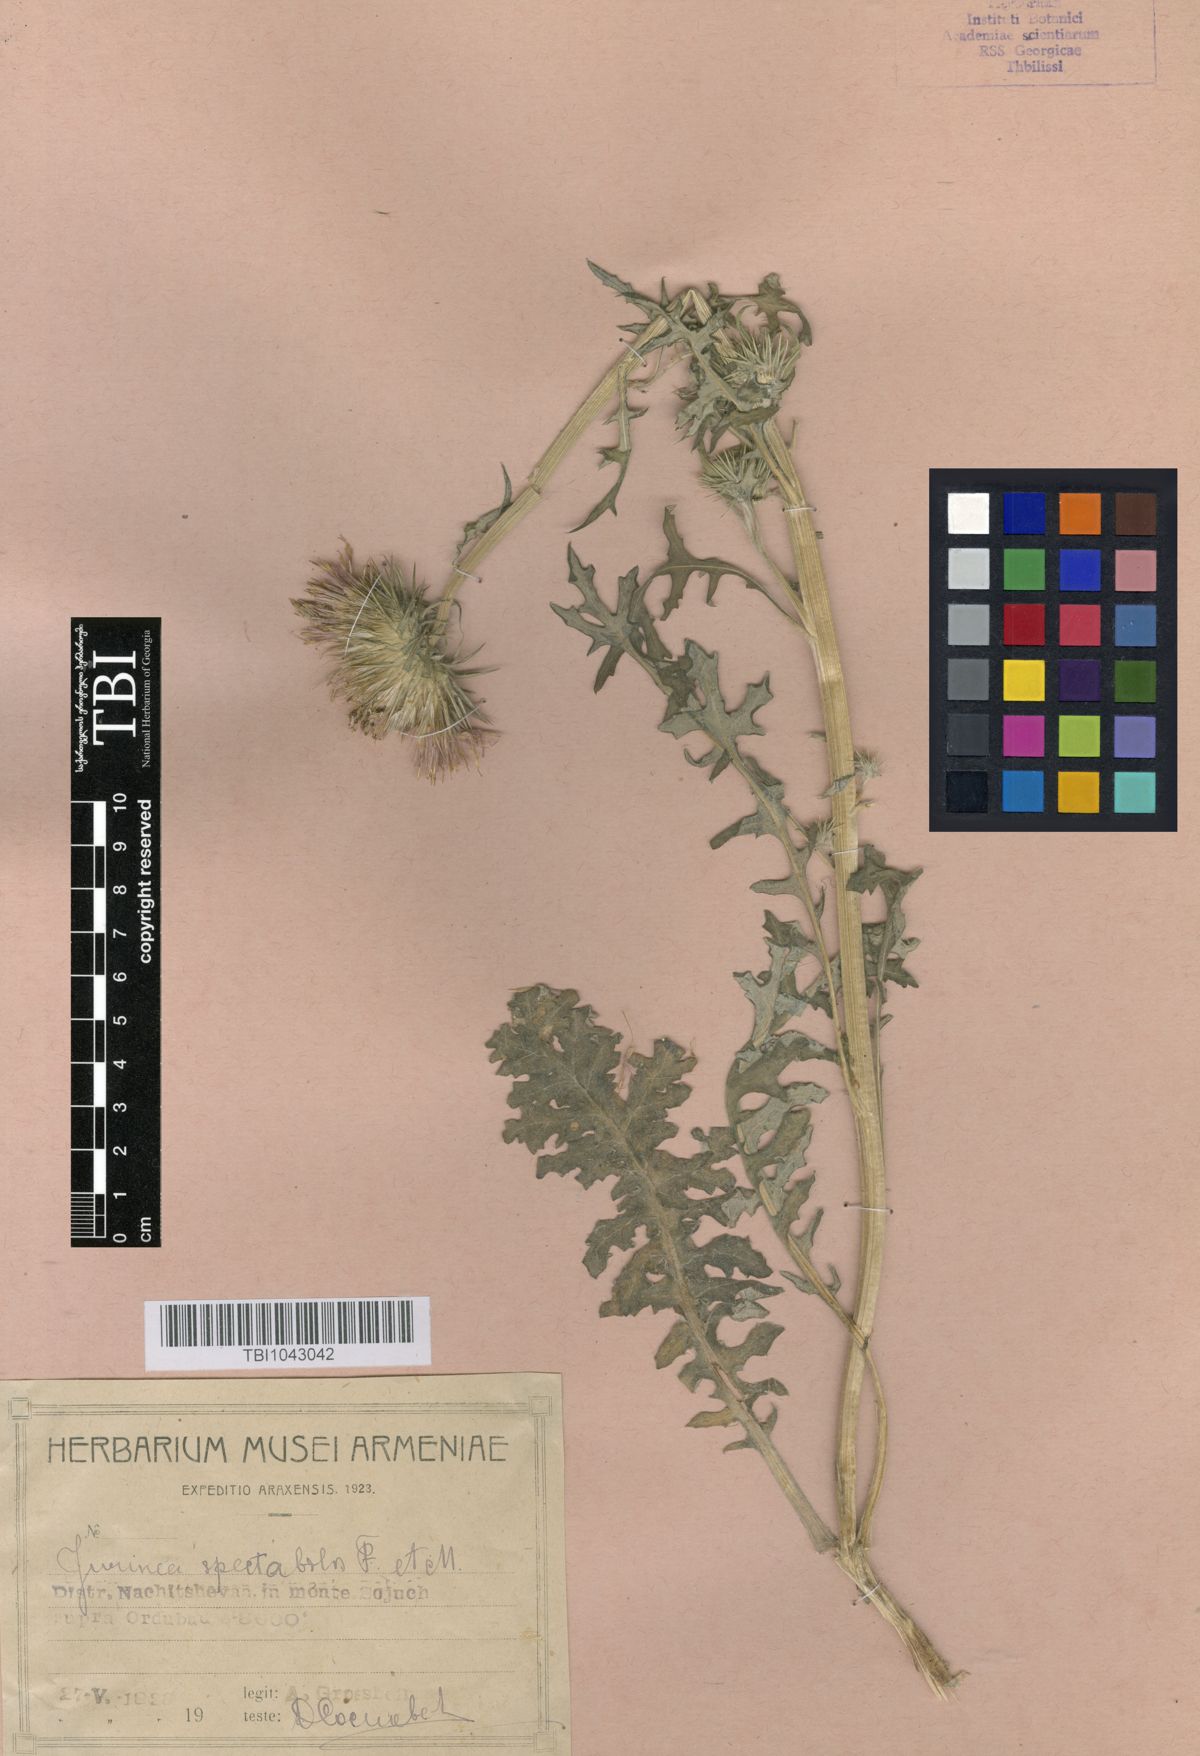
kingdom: Plantae
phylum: Tracheophyta
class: Magnoliopsida
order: Asterales
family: Asteraceae
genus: Jurinea
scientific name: Jurinea spectabilis
